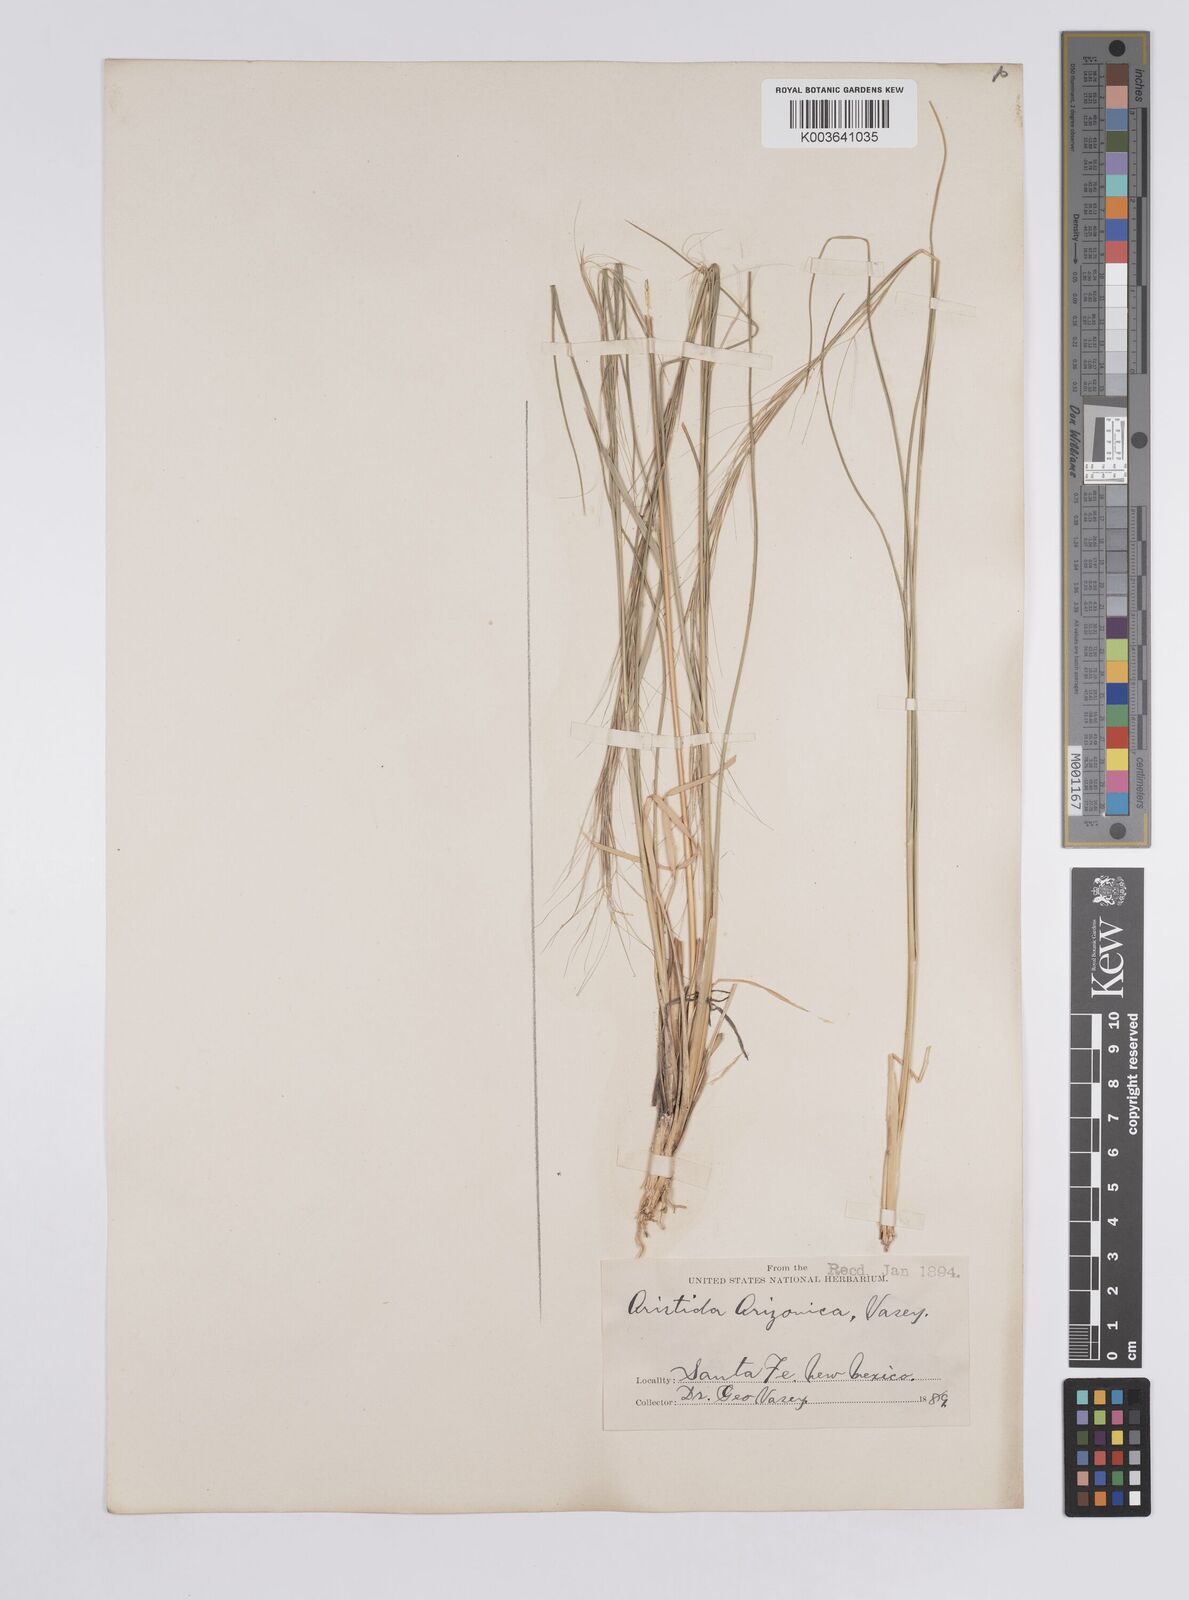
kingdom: Plantae
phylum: Tracheophyta
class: Liliopsida
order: Poales
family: Poaceae
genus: Aristida
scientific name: Aristida arizonica
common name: Arizona threeawn
